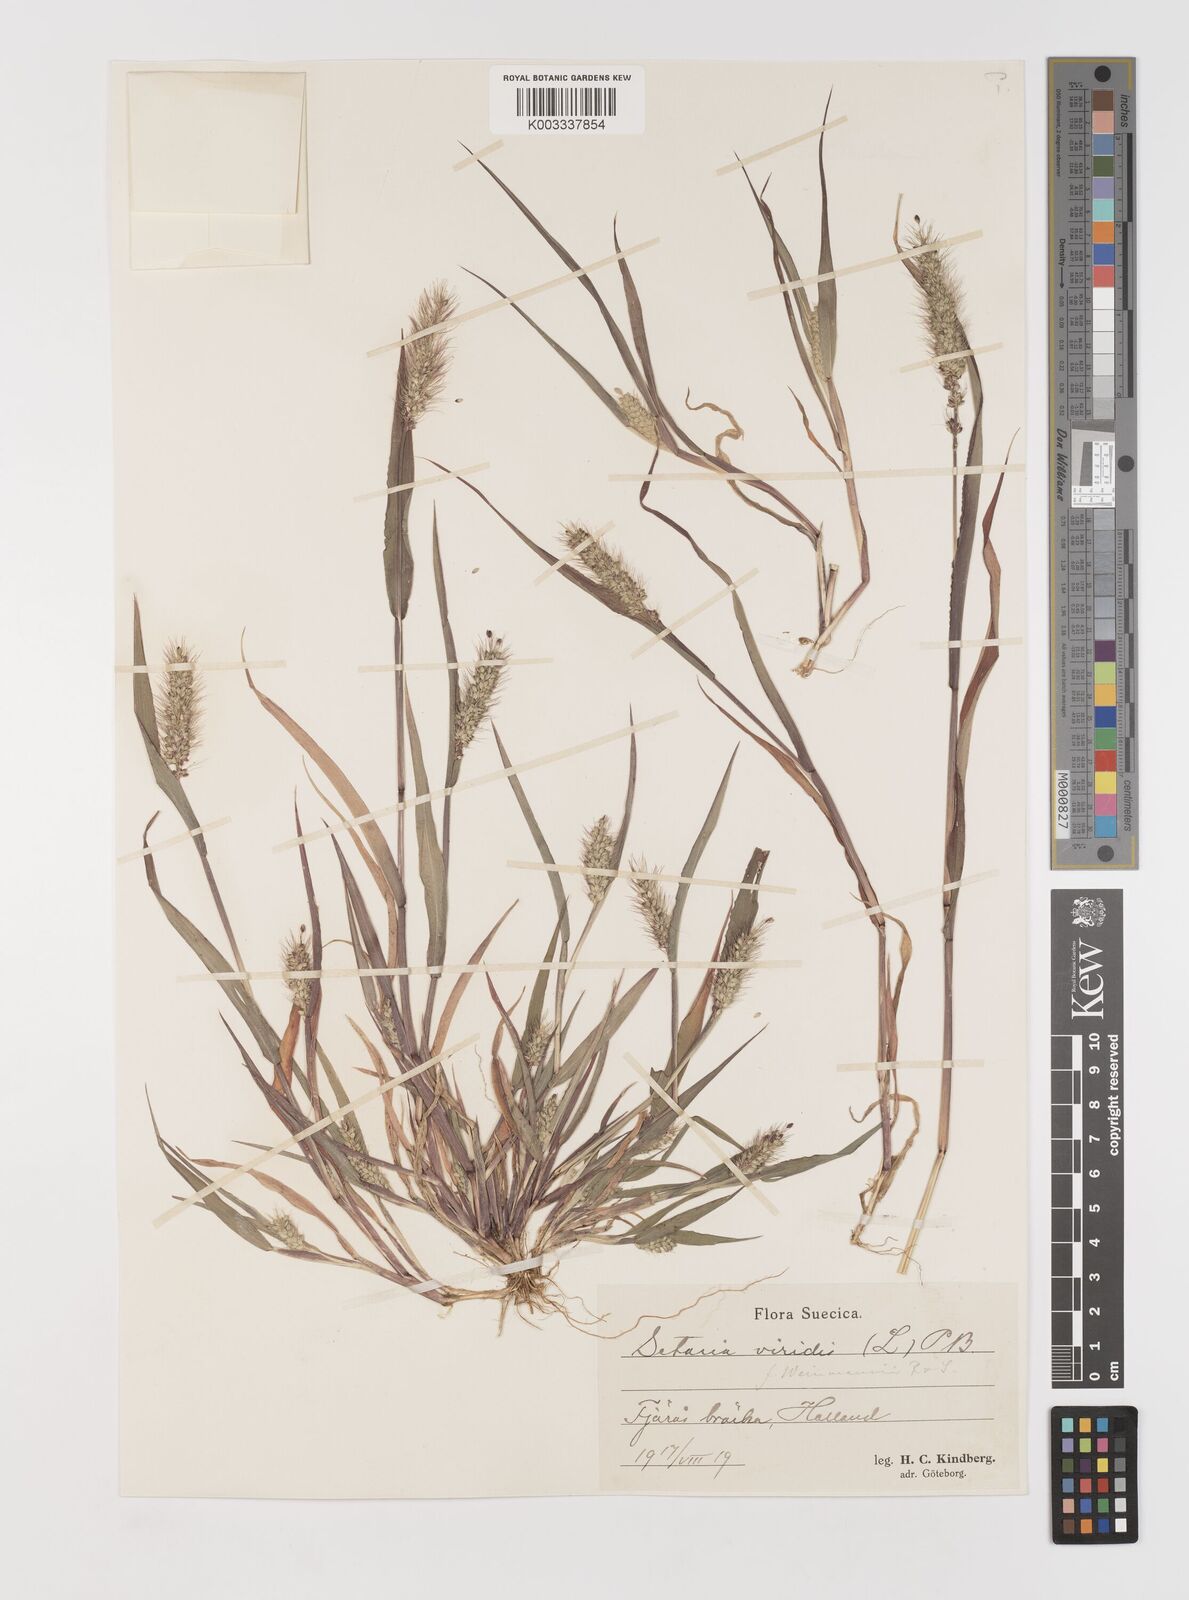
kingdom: Plantae
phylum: Tracheophyta
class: Liliopsida
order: Poales
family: Poaceae
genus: Setaria
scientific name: Setaria viridis
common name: Green bristlegrass
